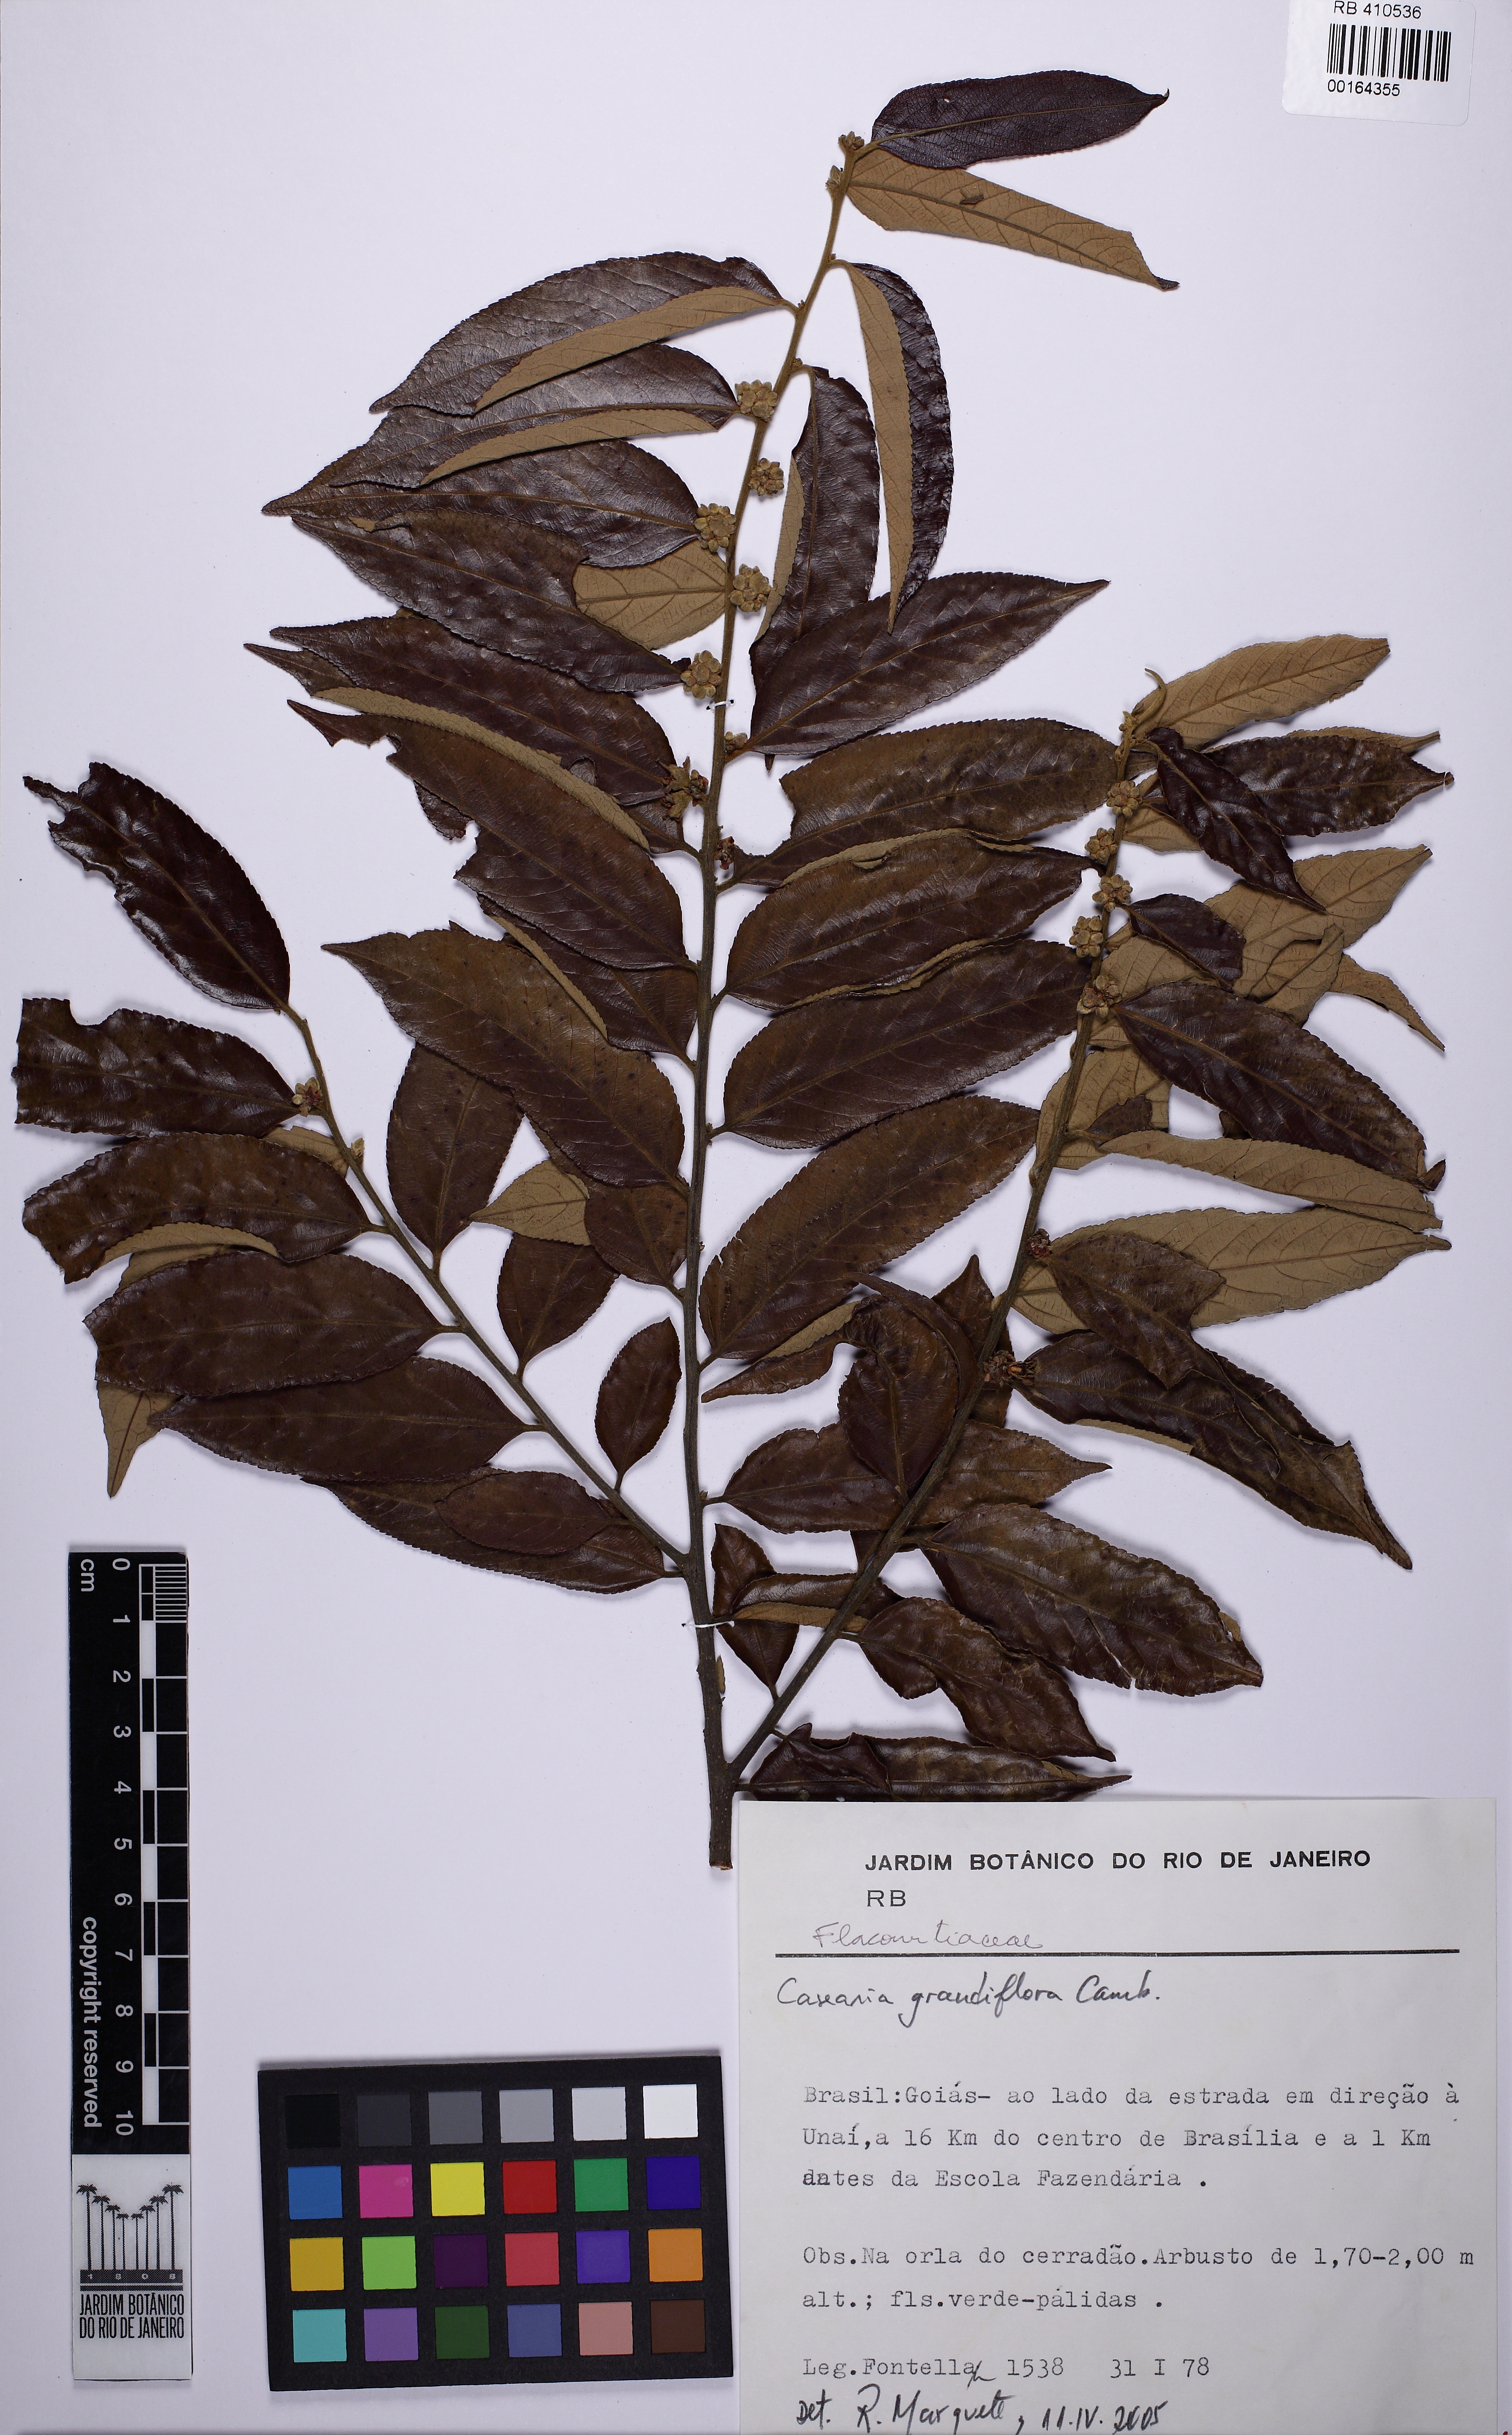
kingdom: Plantae
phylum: Tracheophyta
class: Magnoliopsida
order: Malpighiales
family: Salicaceae
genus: Casearia
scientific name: Casearia grandiflora
